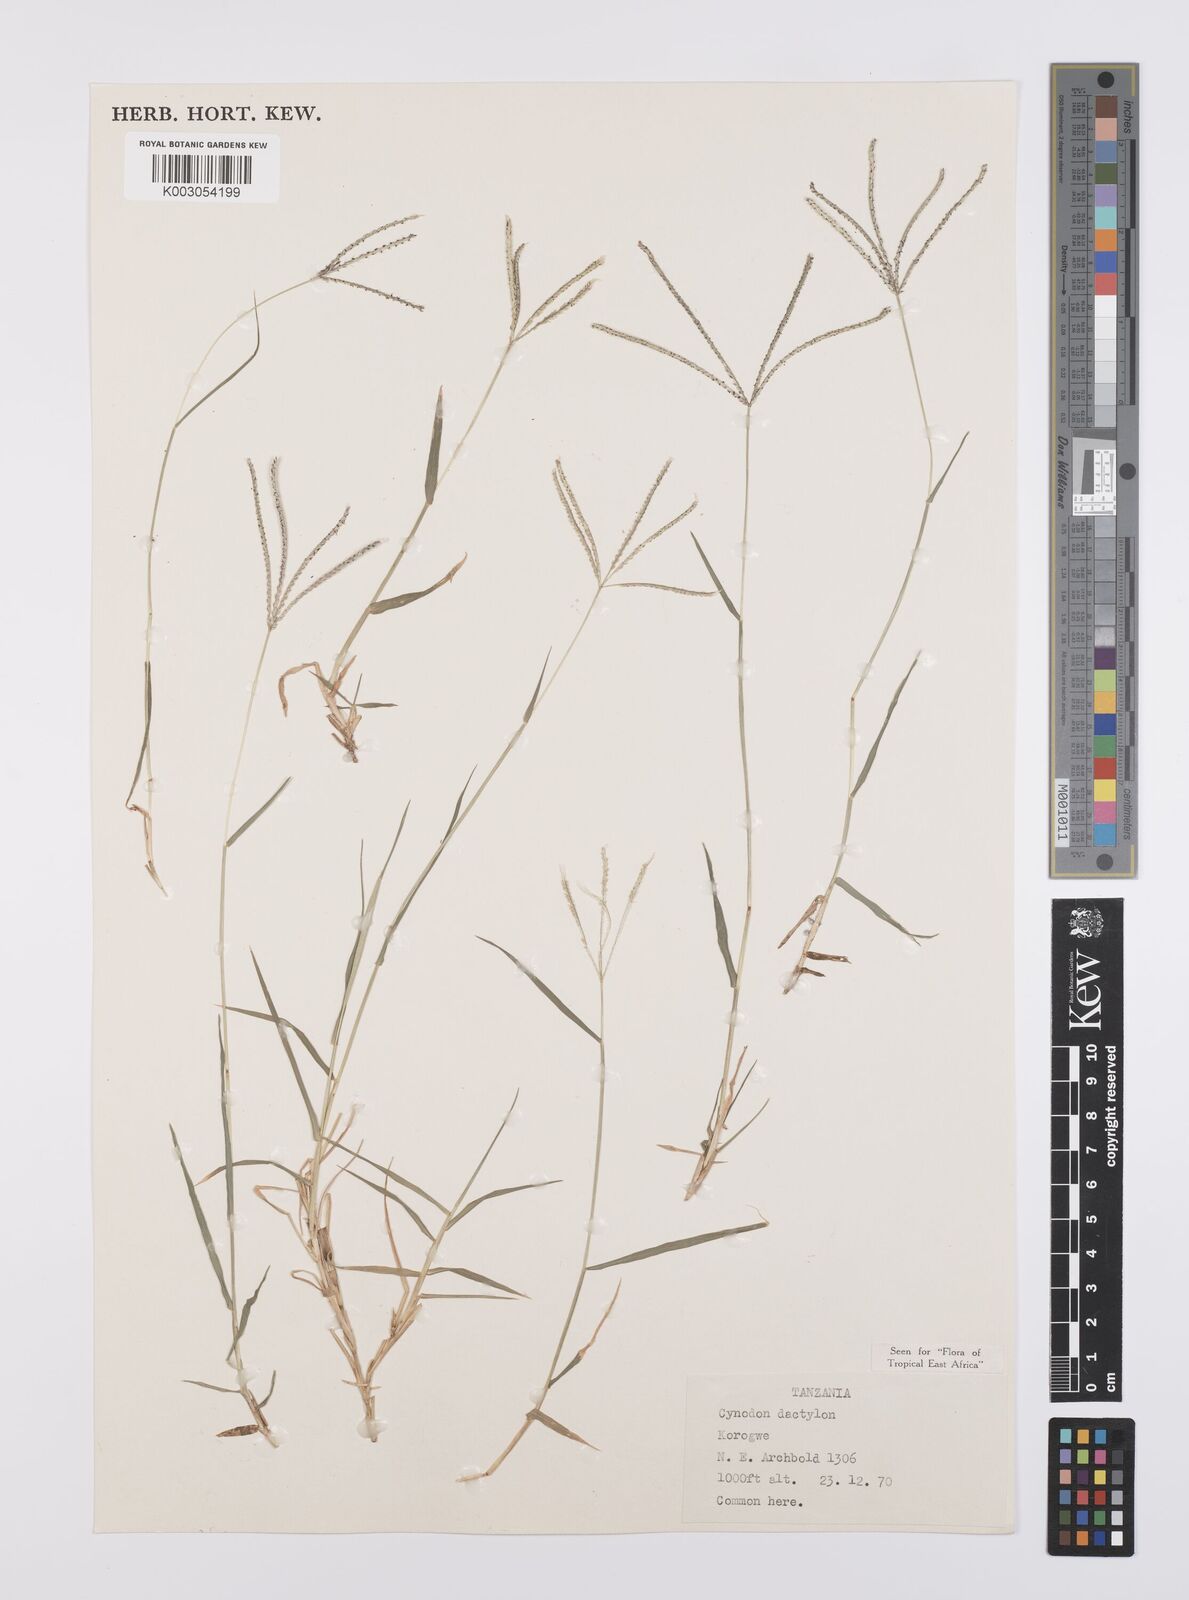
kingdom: Plantae
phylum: Tracheophyta
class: Liliopsida
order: Poales
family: Poaceae
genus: Cynodon
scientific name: Cynodon dactylon
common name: Bermuda grass
